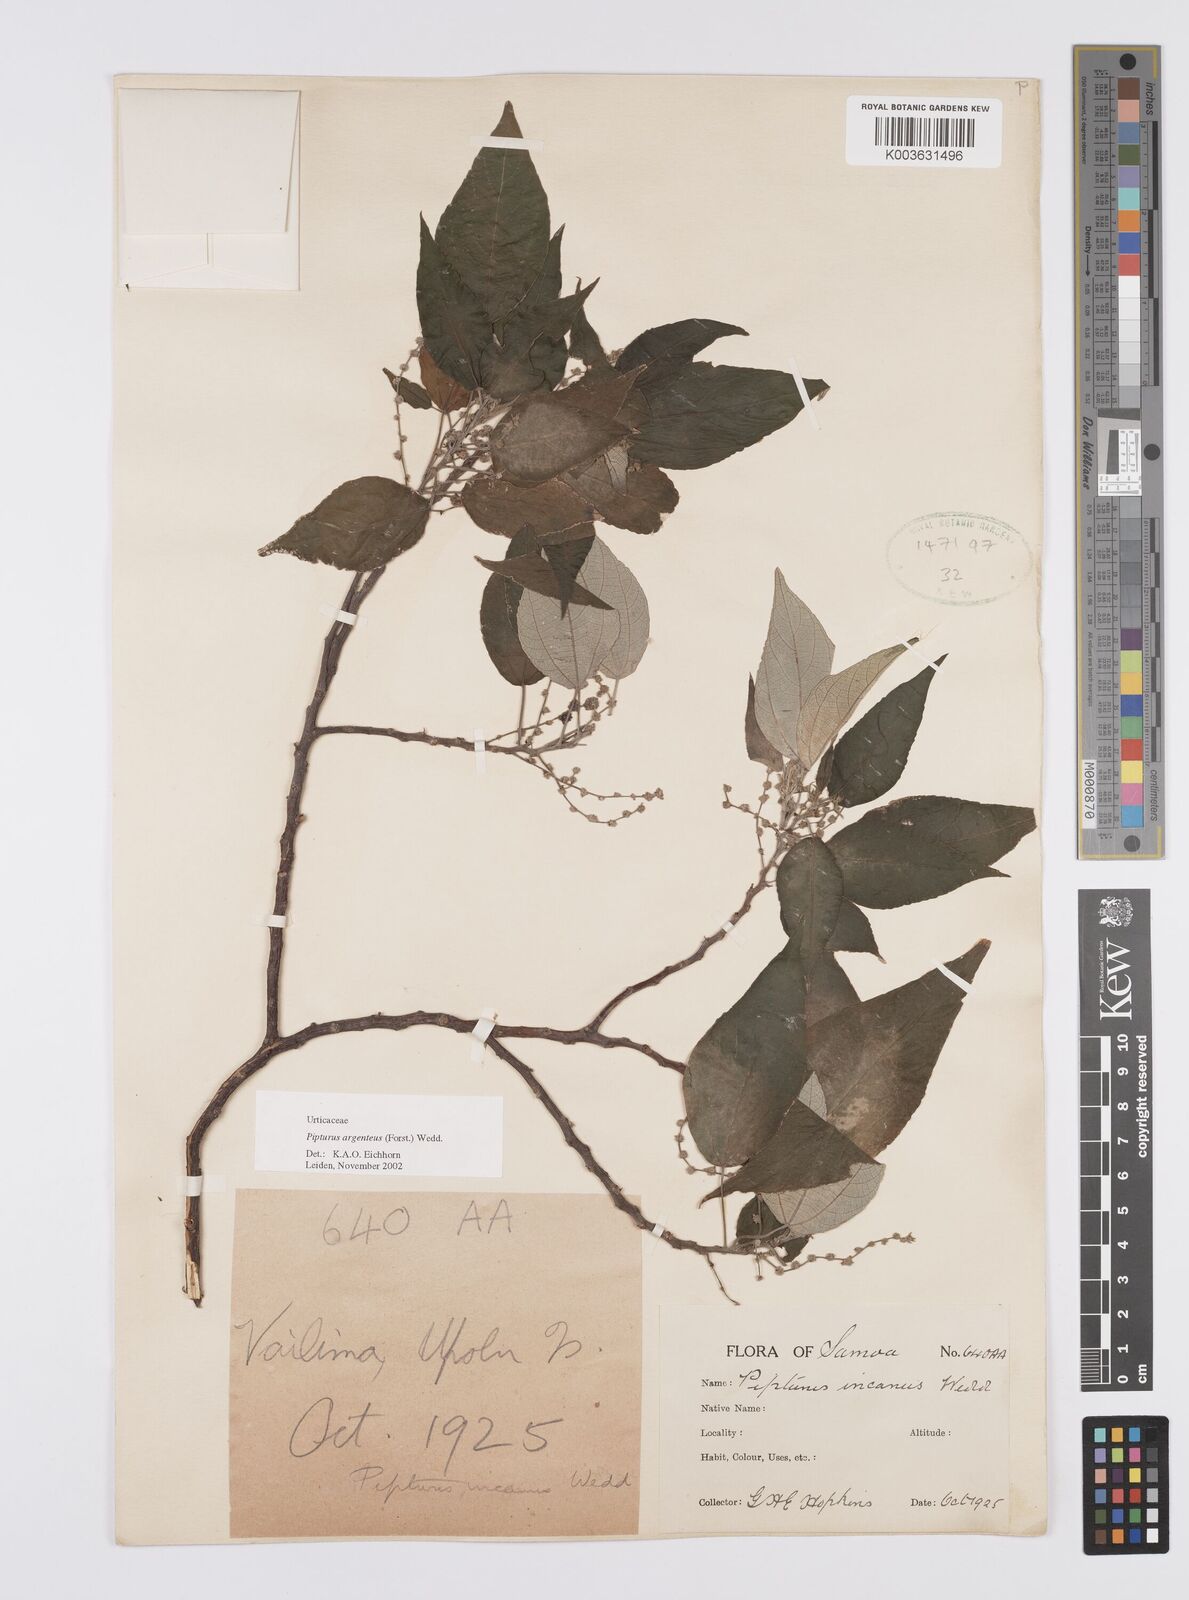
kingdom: Plantae
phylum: Tracheophyta
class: Magnoliopsida
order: Rosales
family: Urticaceae
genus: Pipturus
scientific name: Pipturus argenteus
